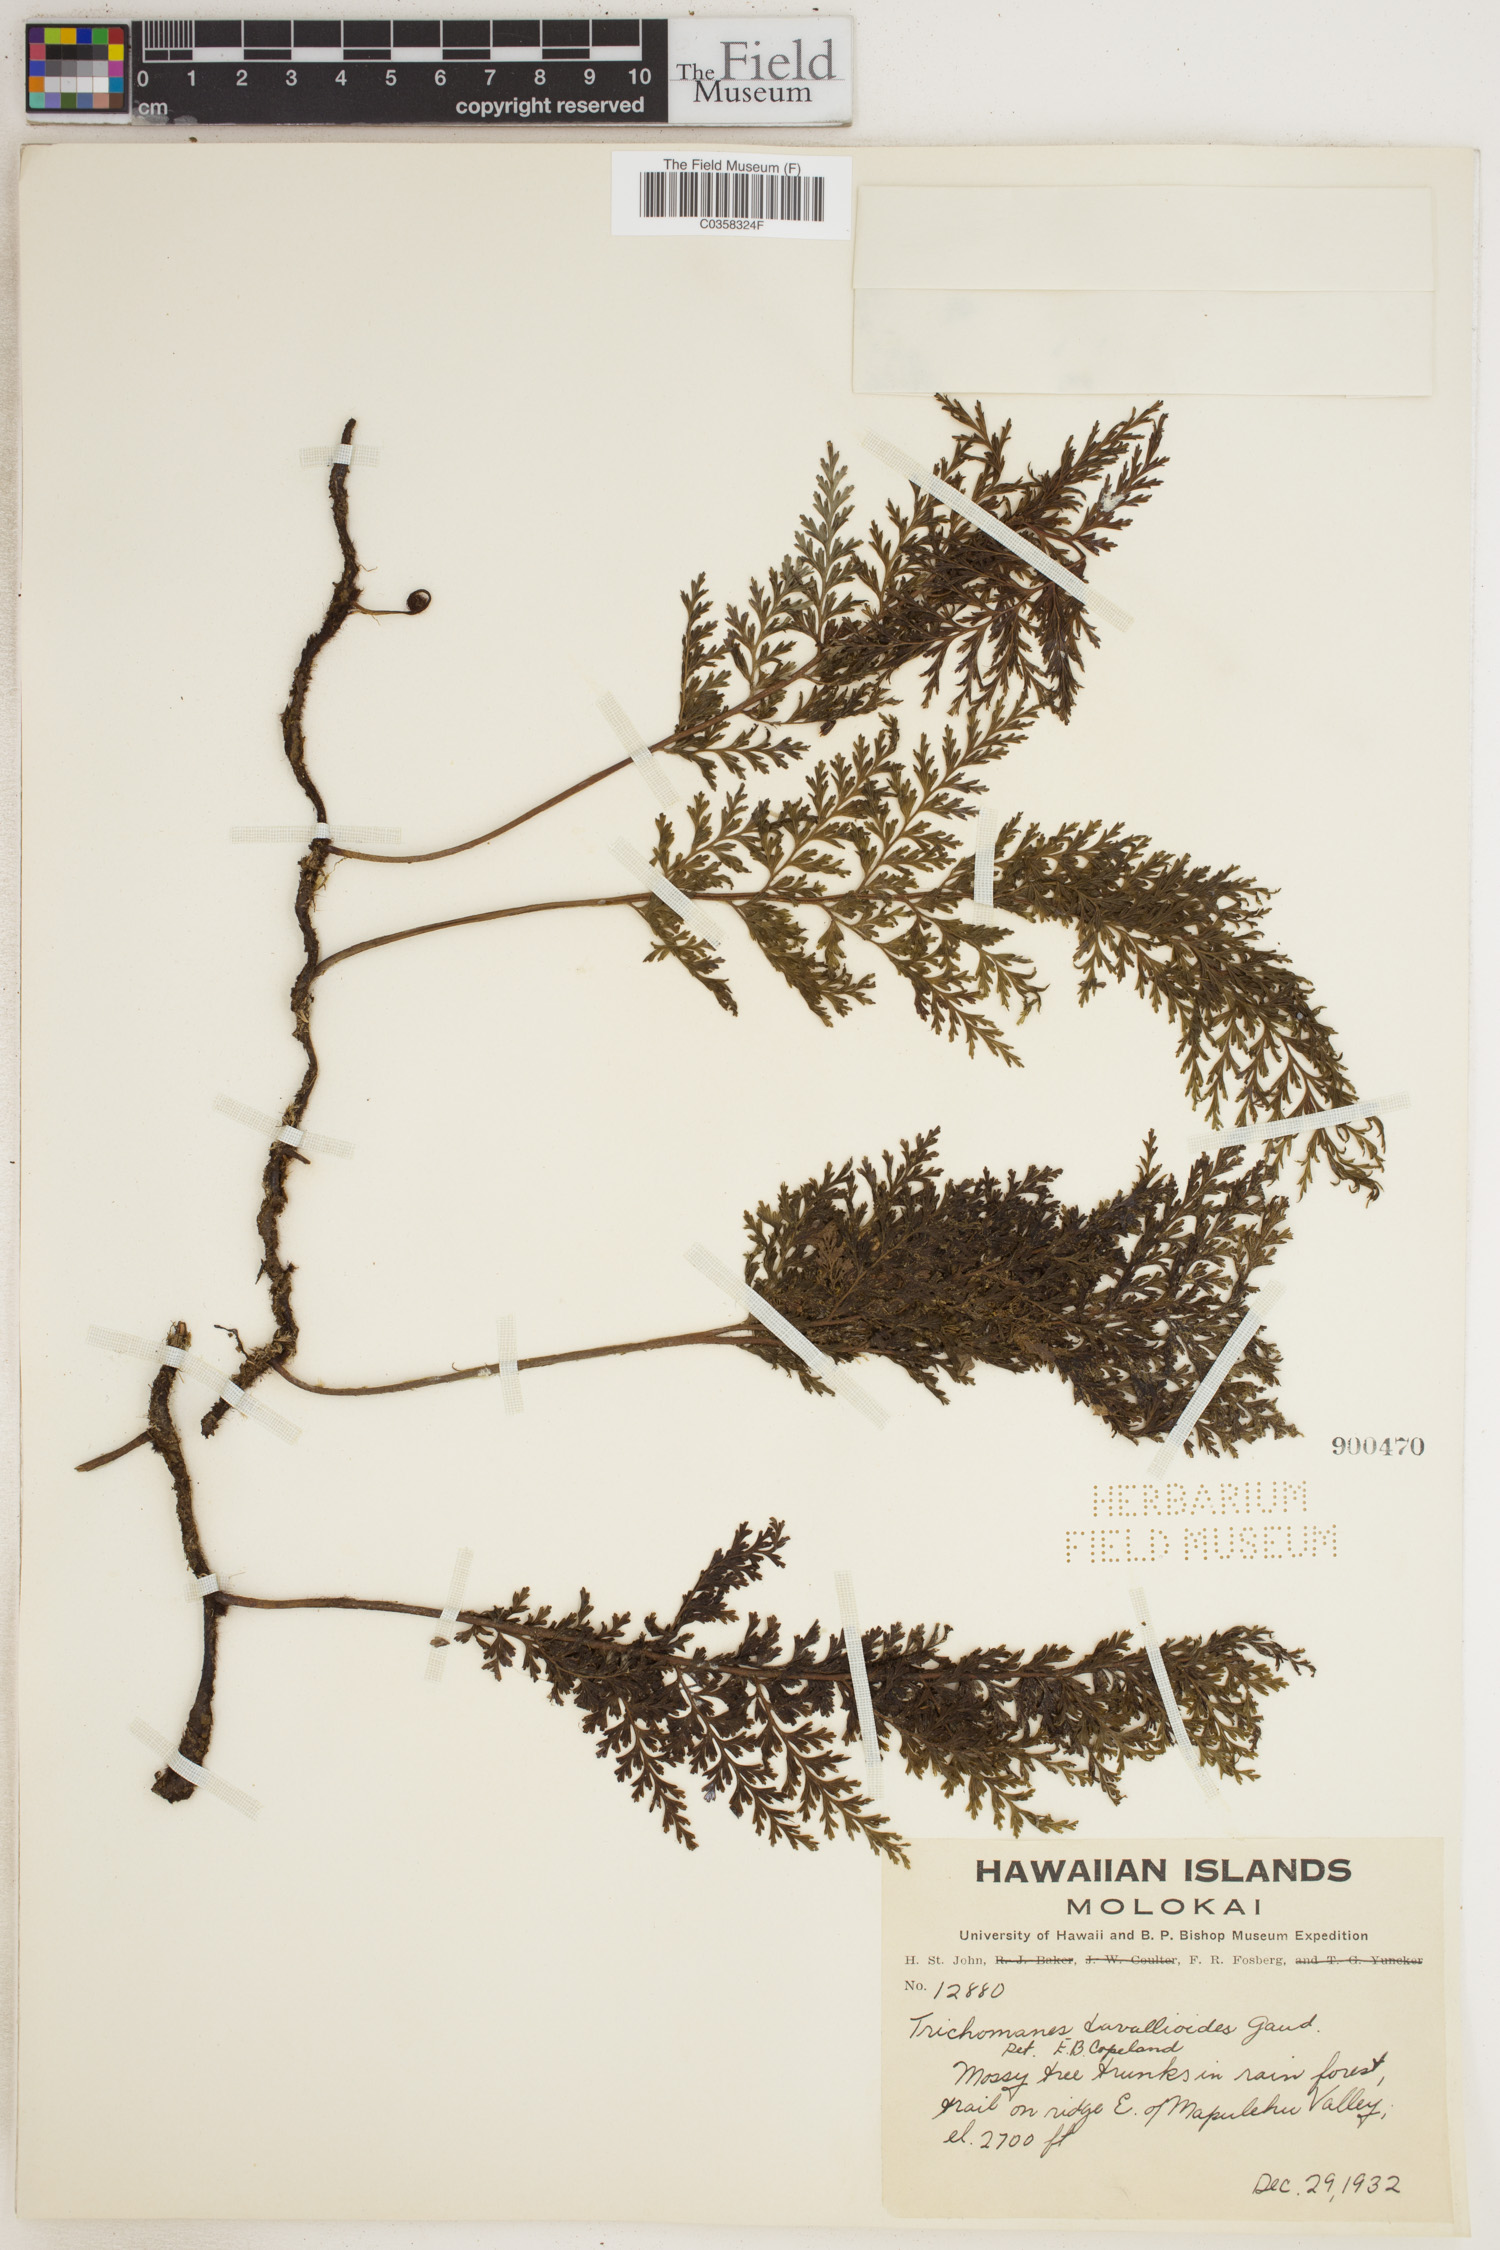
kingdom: Plantae
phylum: Tracheophyta
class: Polypodiopsida
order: Hymenophyllales
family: Hymenophyllaceae
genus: Vandenboschia
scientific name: Vandenboschia davallioides
